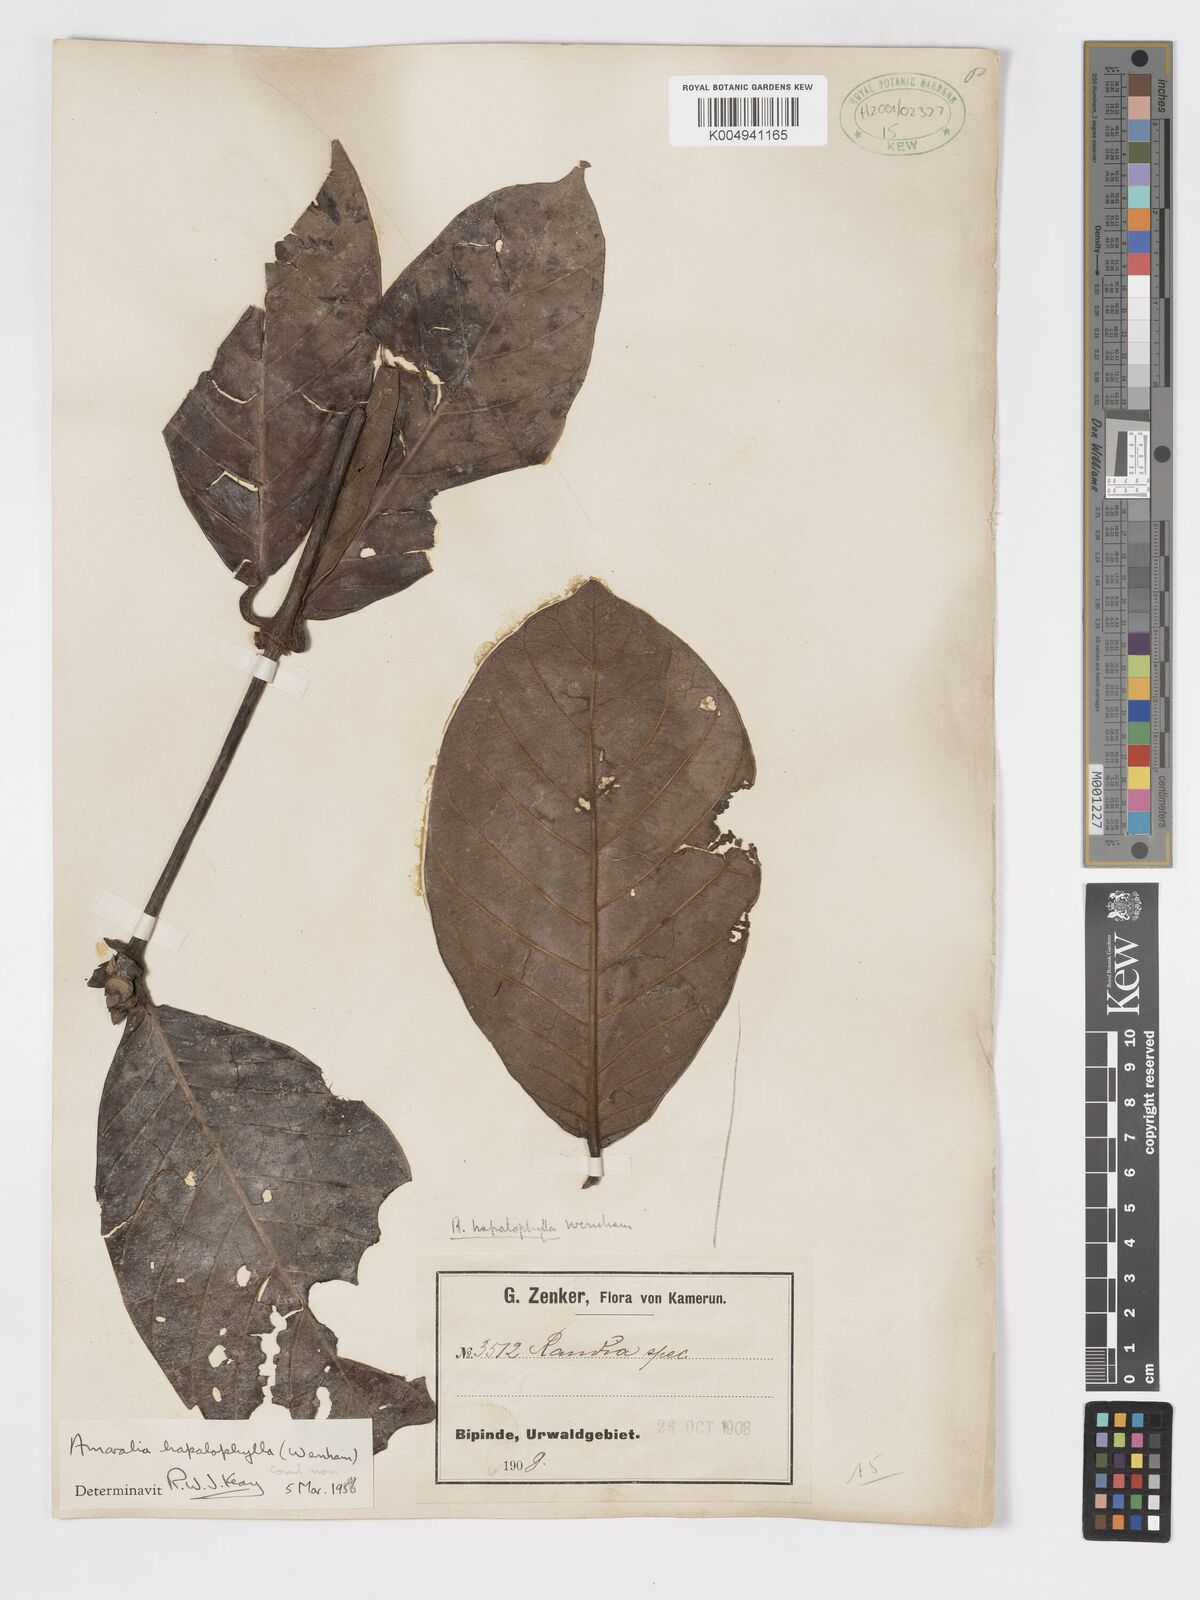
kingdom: Plantae
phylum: Tracheophyta
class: Magnoliopsida
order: Gentianales
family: Rubiaceae
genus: Sherbournia
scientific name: Sherbournia hapalophylla
